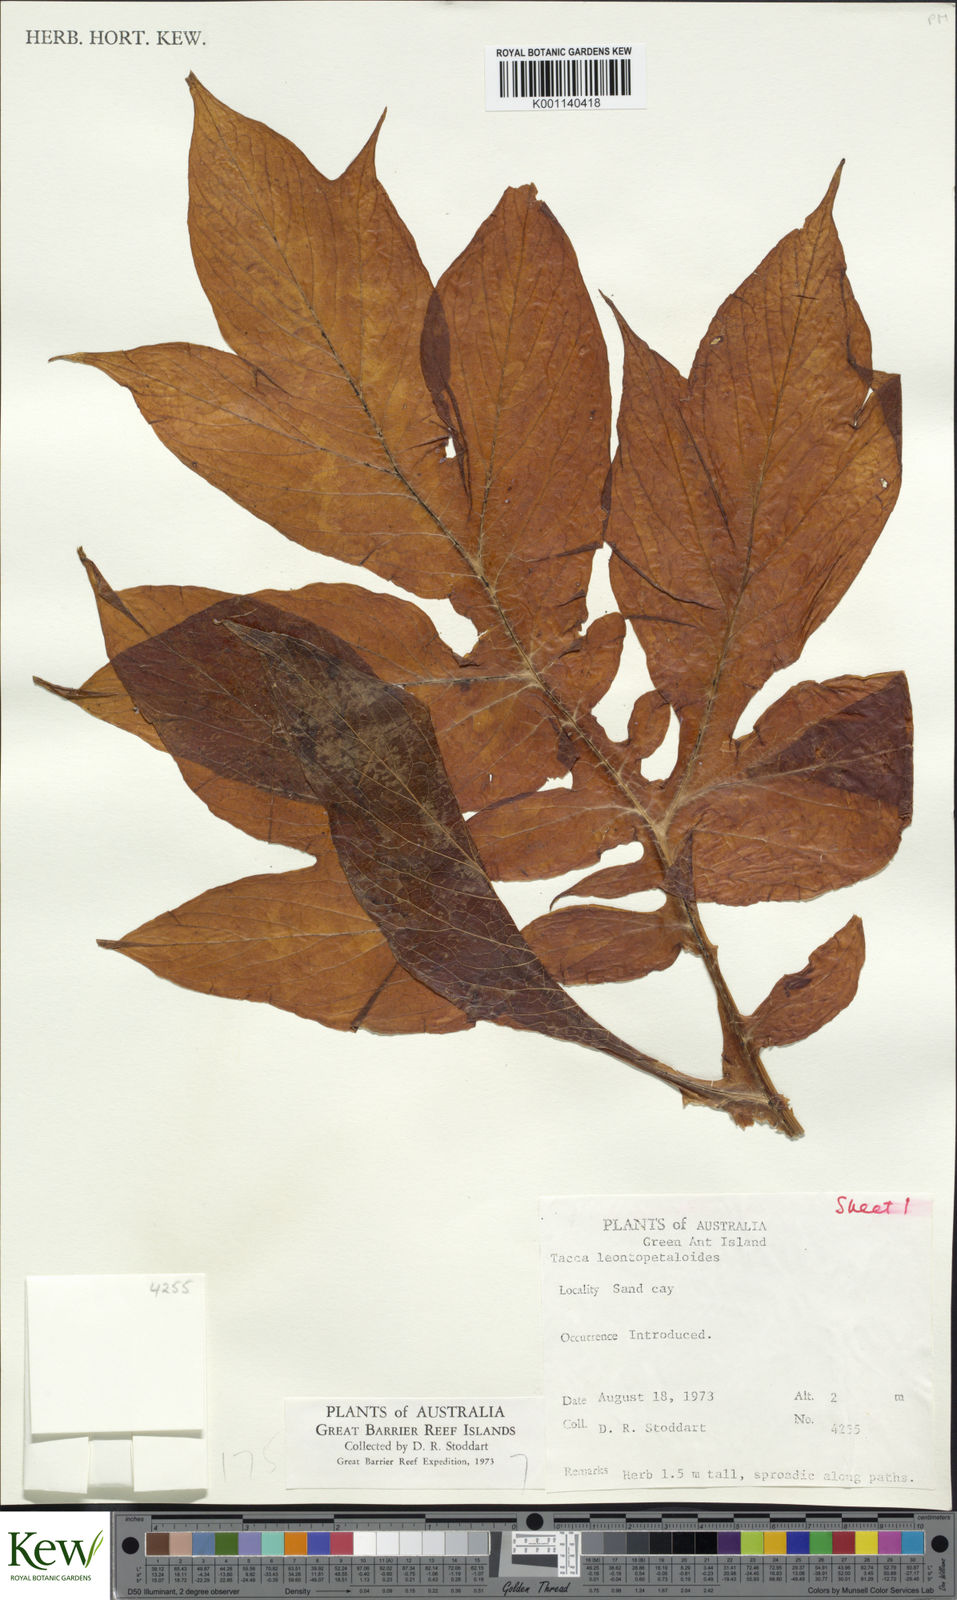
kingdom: Plantae
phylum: Tracheophyta
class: Liliopsida
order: Dioscoreales
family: Dioscoreaceae
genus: Tacca
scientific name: Tacca leontopetaloides
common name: Arrowroot
